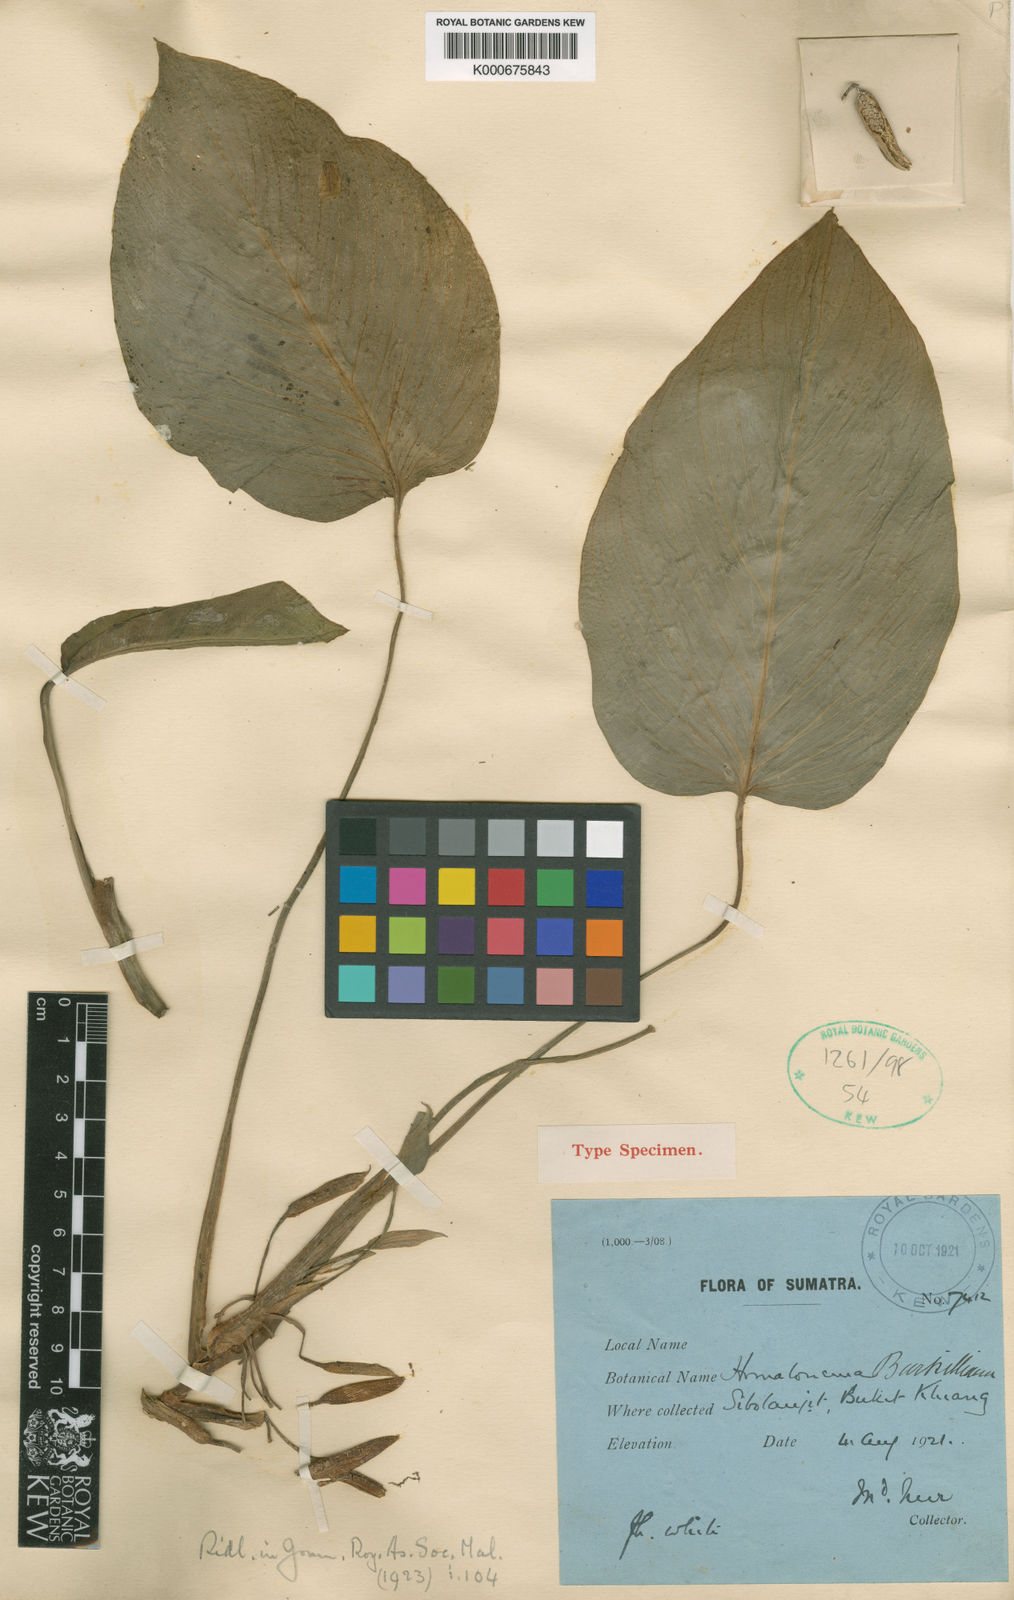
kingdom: Plantae
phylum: Tracheophyta
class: Liliopsida
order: Alismatales
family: Araceae
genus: Homalomena
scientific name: Homalomena burkilliana
